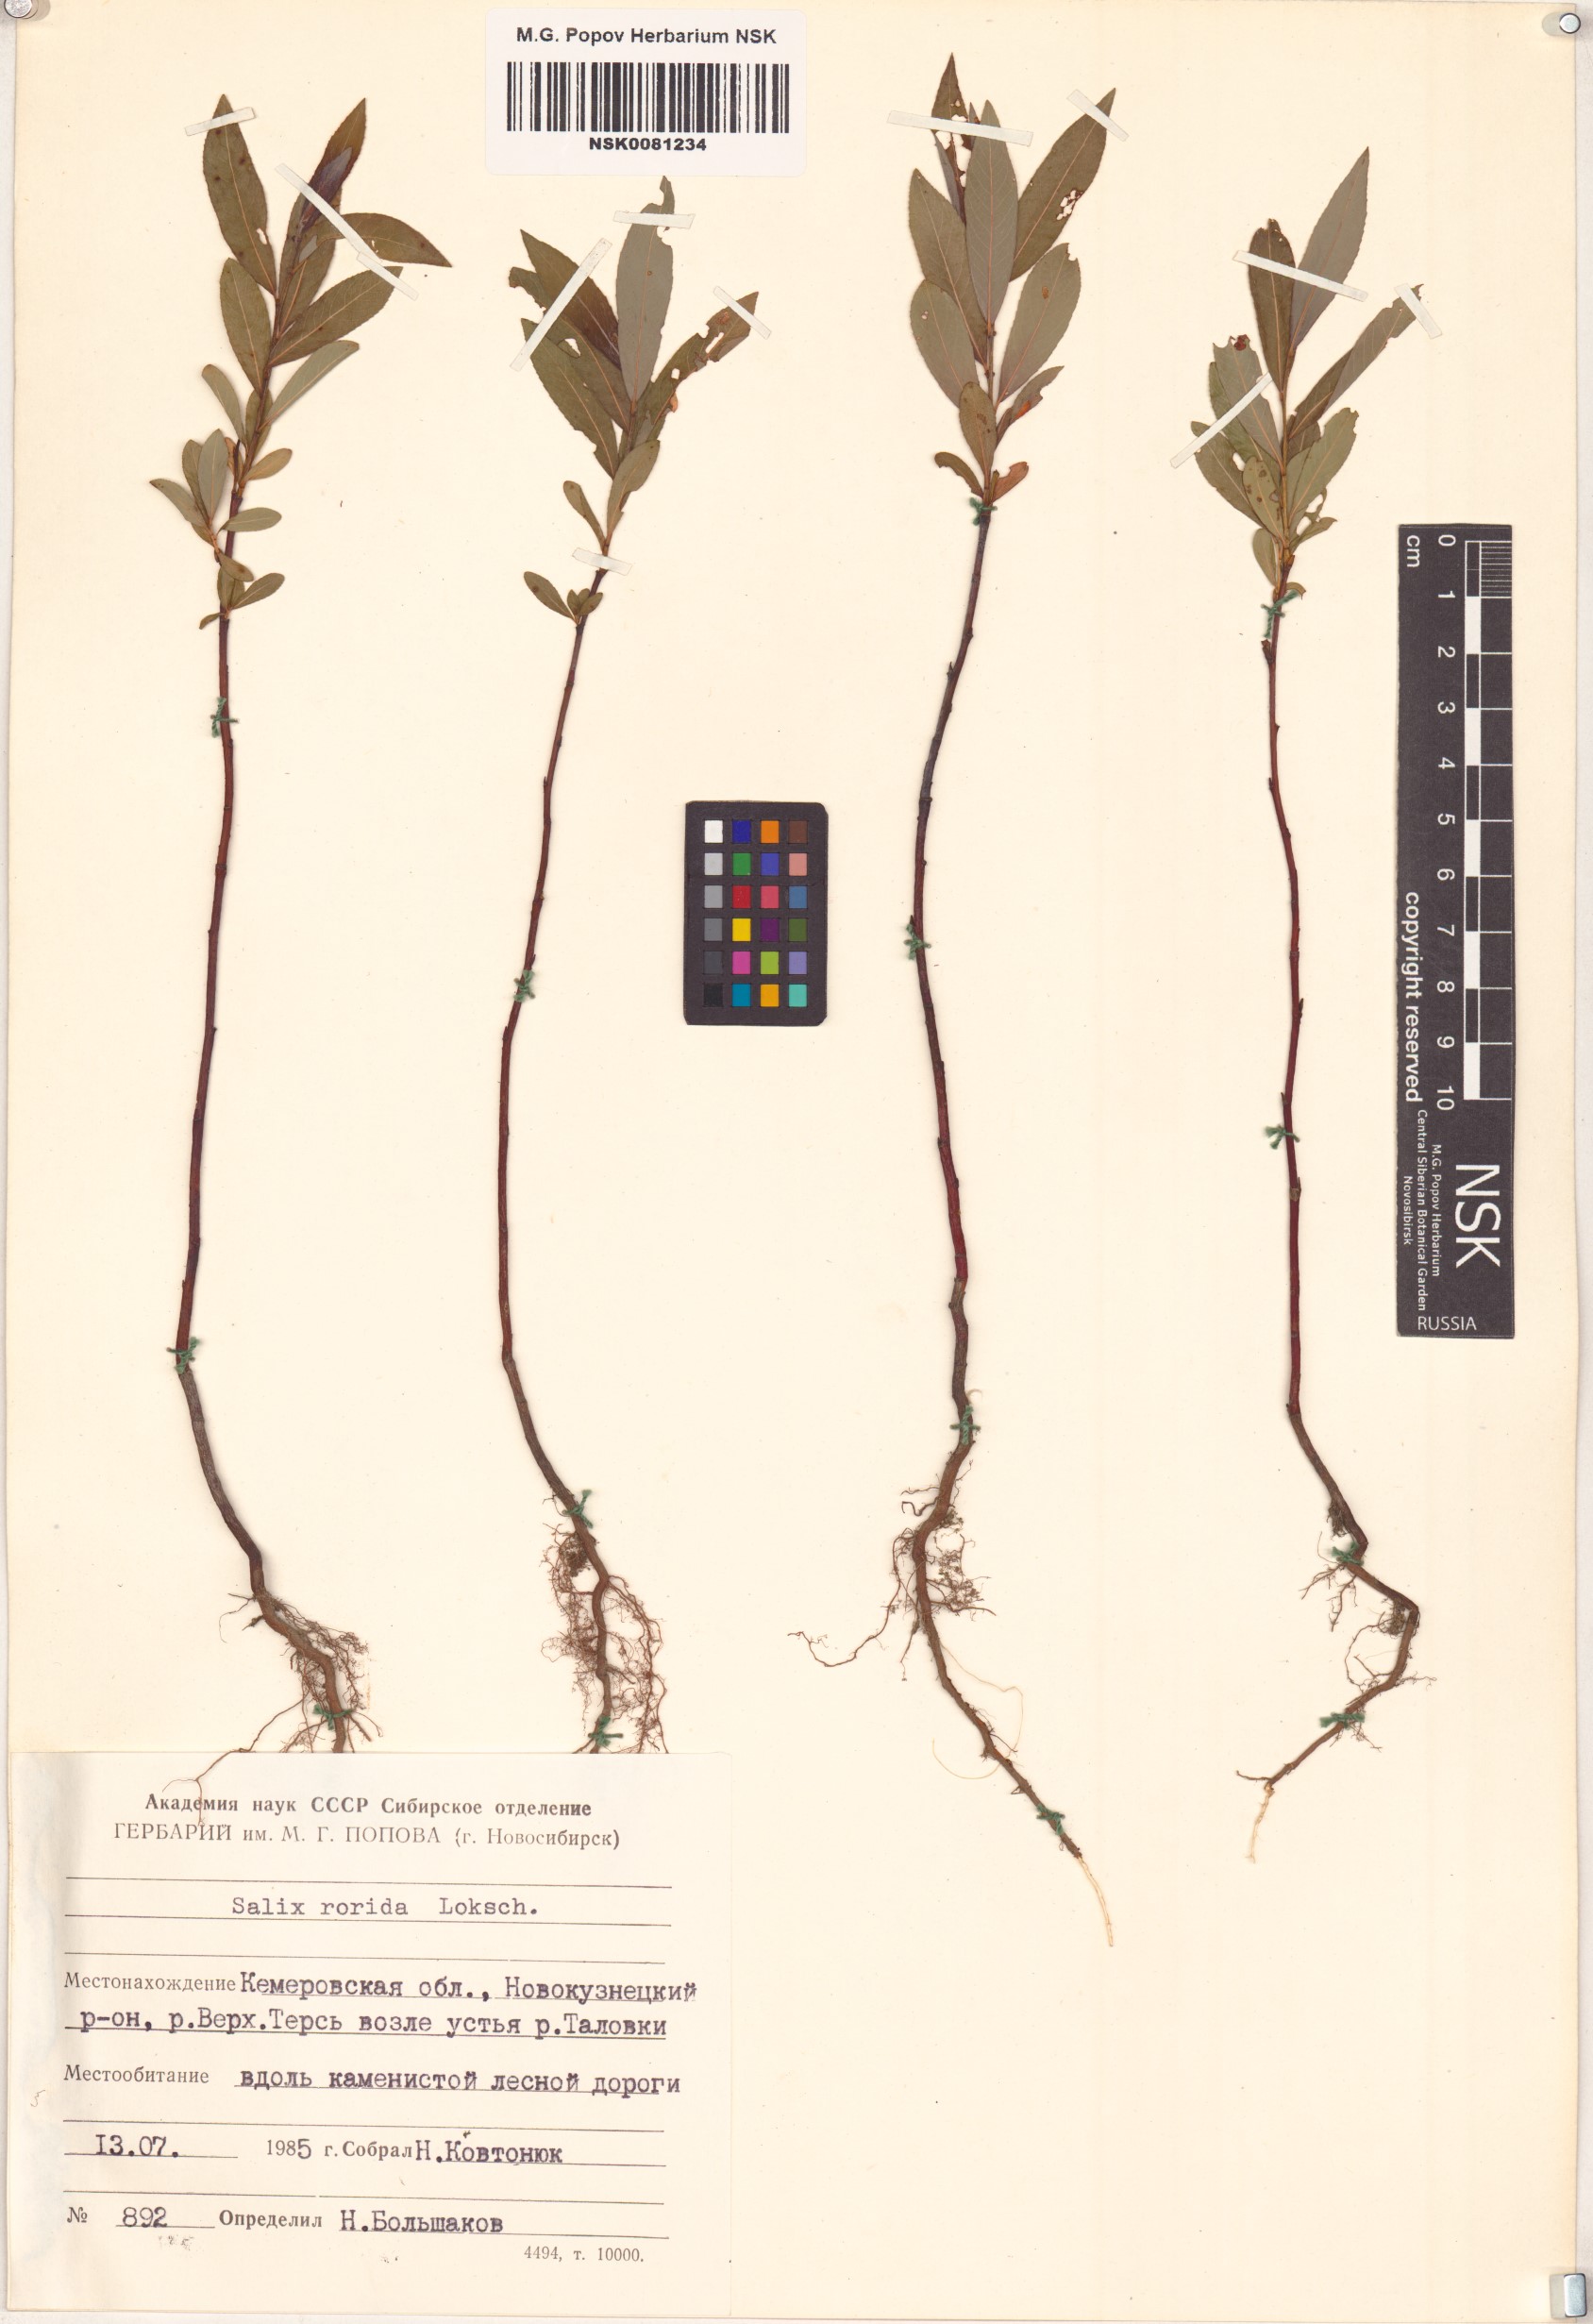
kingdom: Plantae
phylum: Tracheophyta
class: Magnoliopsida
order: Malpighiales
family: Salicaceae
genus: Salix
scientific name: Salix rorida
